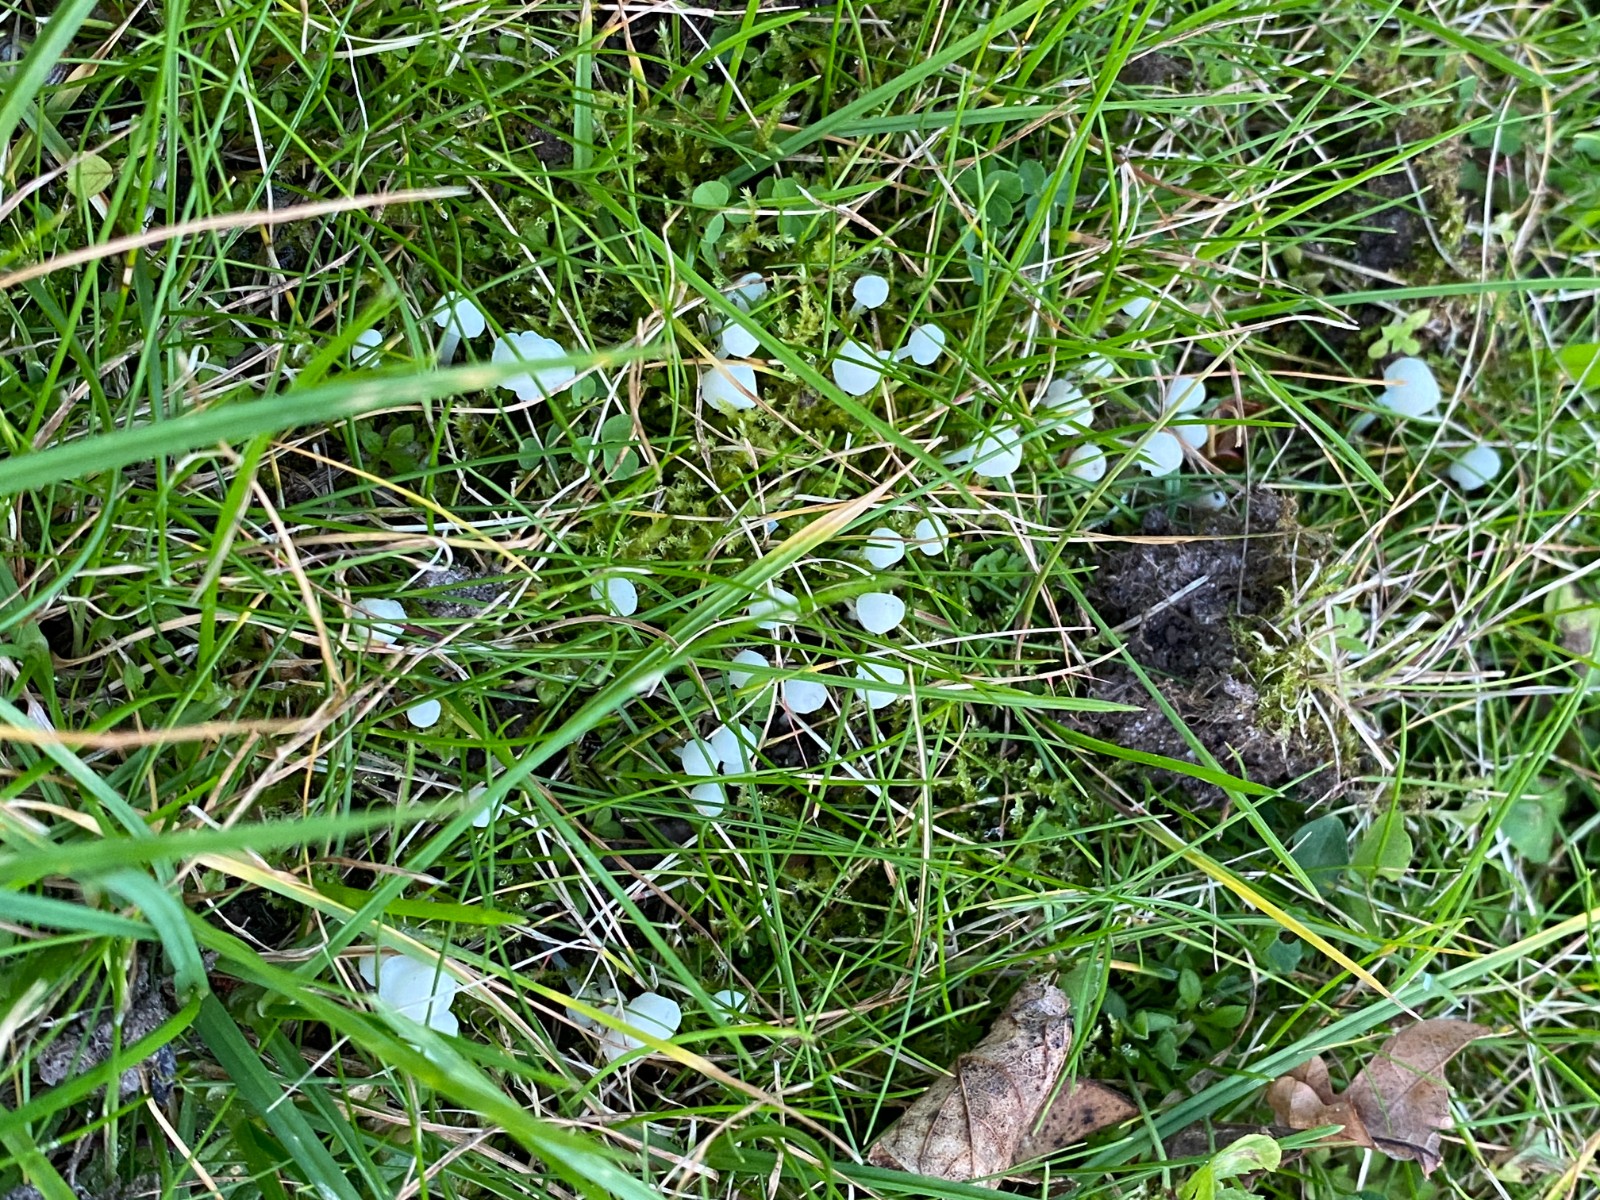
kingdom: Fungi
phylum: Basidiomycota
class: Agaricomycetes
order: Agaricales
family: Mycenaceae
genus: Hemimycena
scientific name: Hemimycena cucullata
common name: tætbladet huesvamp
